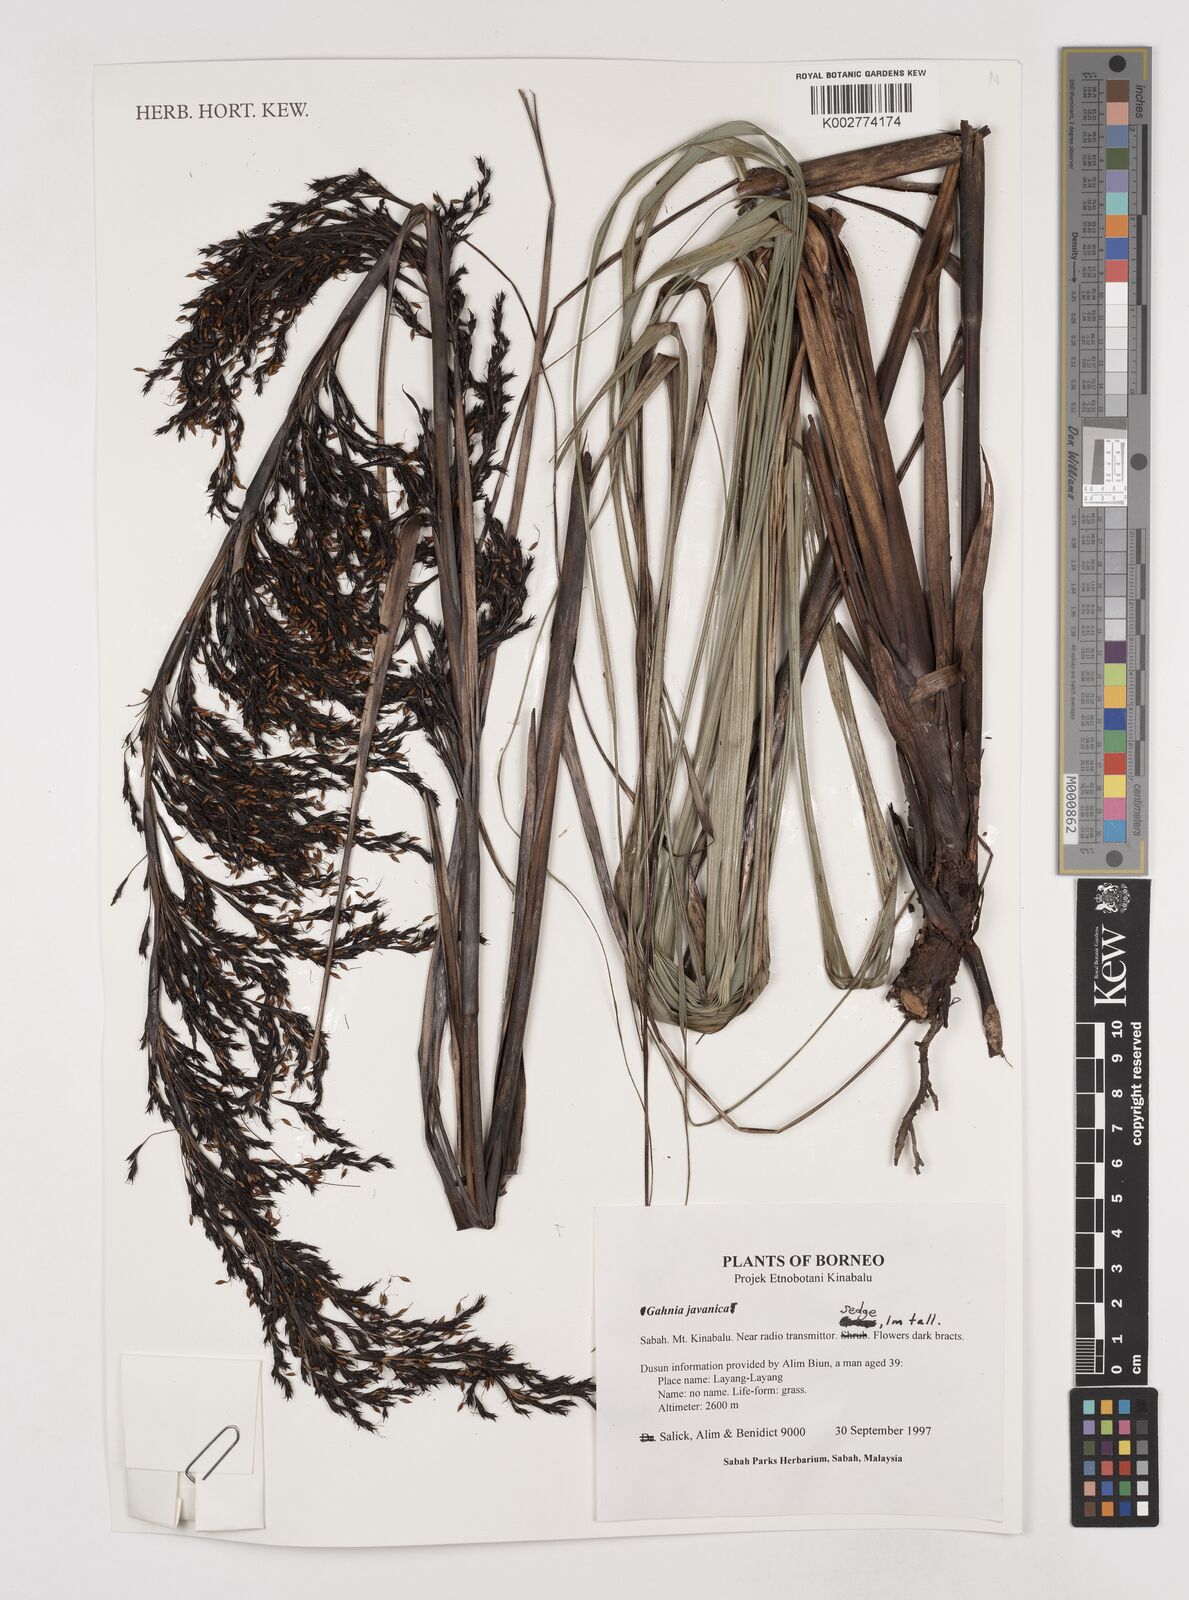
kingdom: Plantae
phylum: Tracheophyta
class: Liliopsida
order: Poales
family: Cyperaceae
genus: Gahnia
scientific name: Gahnia javanica
